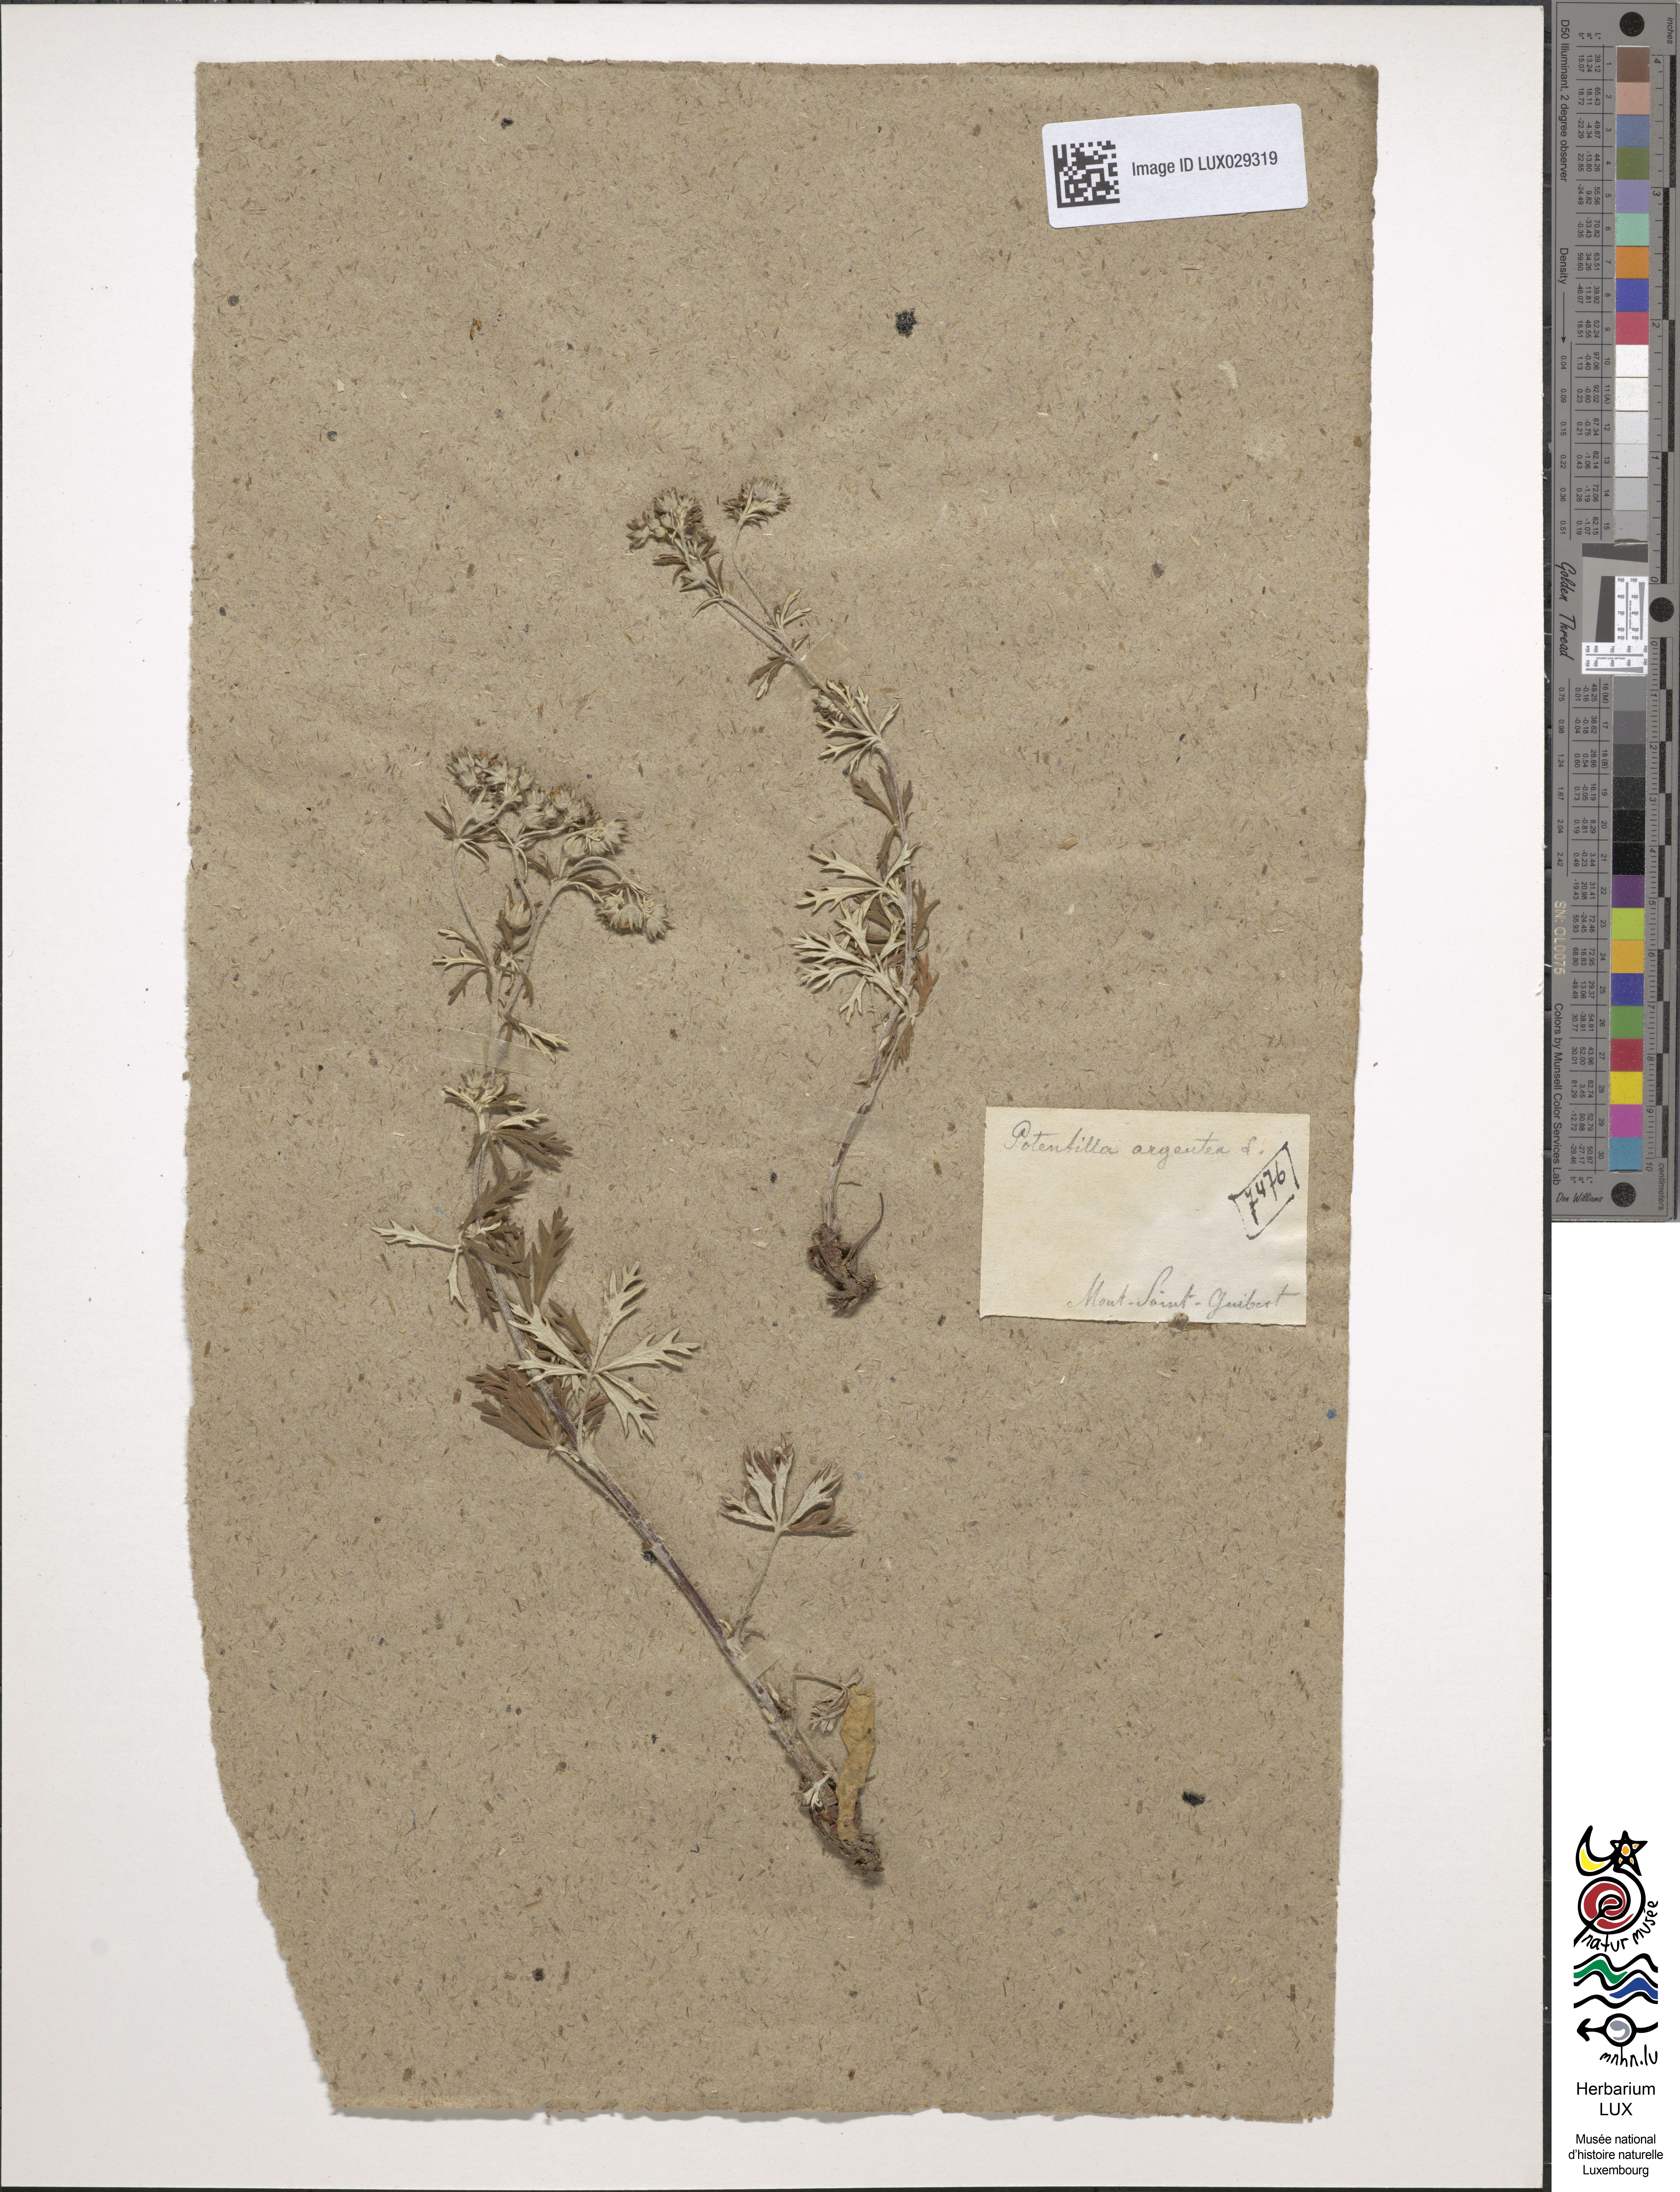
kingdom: Plantae
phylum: Tracheophyta
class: Magnoliopsida
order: Rosales
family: Rosaceae
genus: Potentilla
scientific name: Potentilla argentea
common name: Hoary cinquefoil
